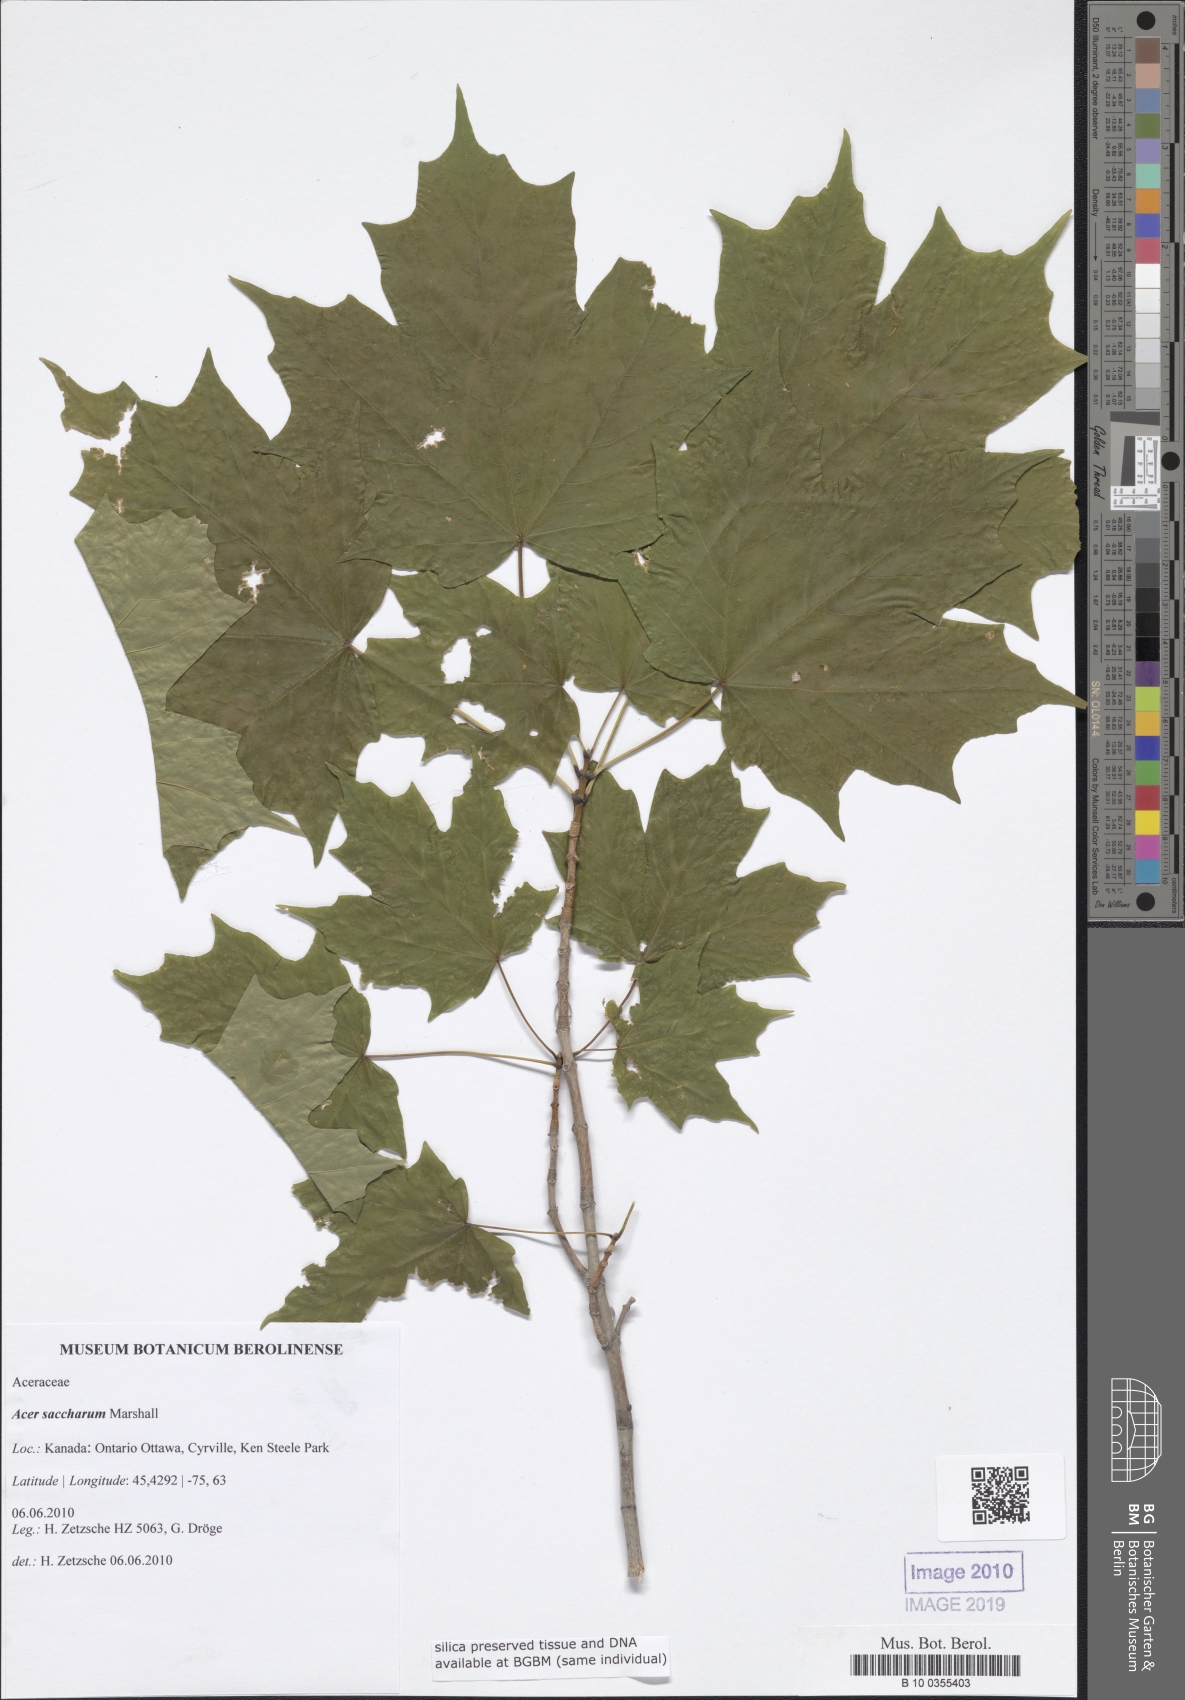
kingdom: Plantae
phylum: Tracheophyta
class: Magnoliopsida
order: Sapindales
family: Sapindaceae
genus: Acer
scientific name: Acer saccharum
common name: Sugar maple
